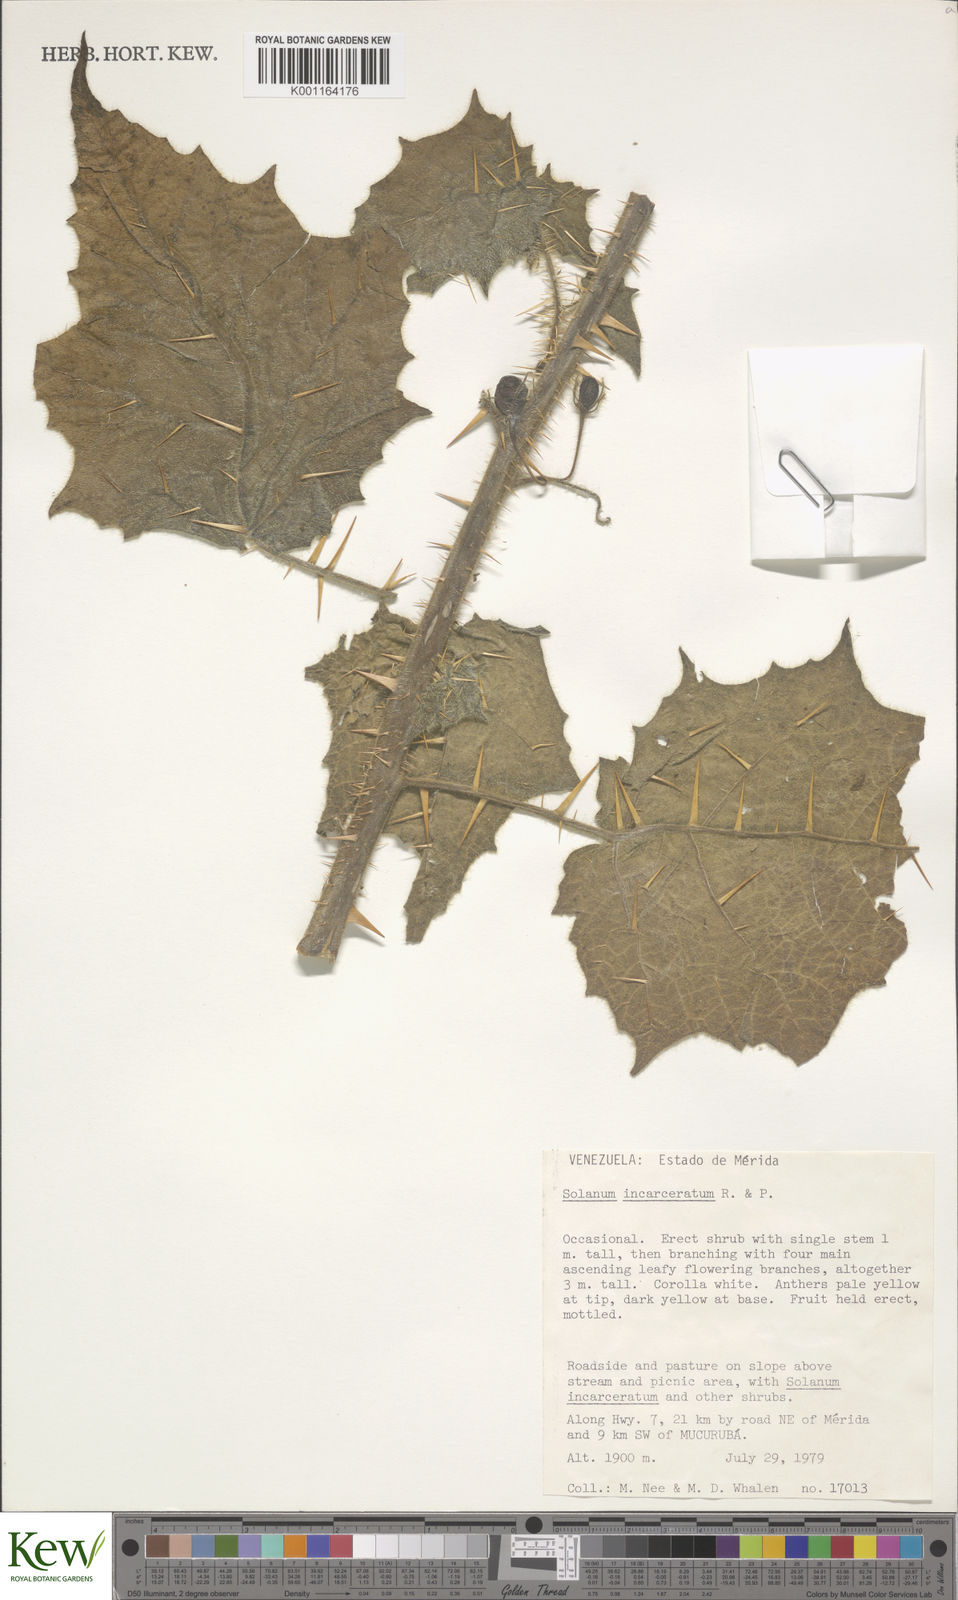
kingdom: Plantae
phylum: Tracheophyta
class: Magnoliopsida
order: Solanales
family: Solanaceae
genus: Solanum
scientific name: Solanum incarceratum
